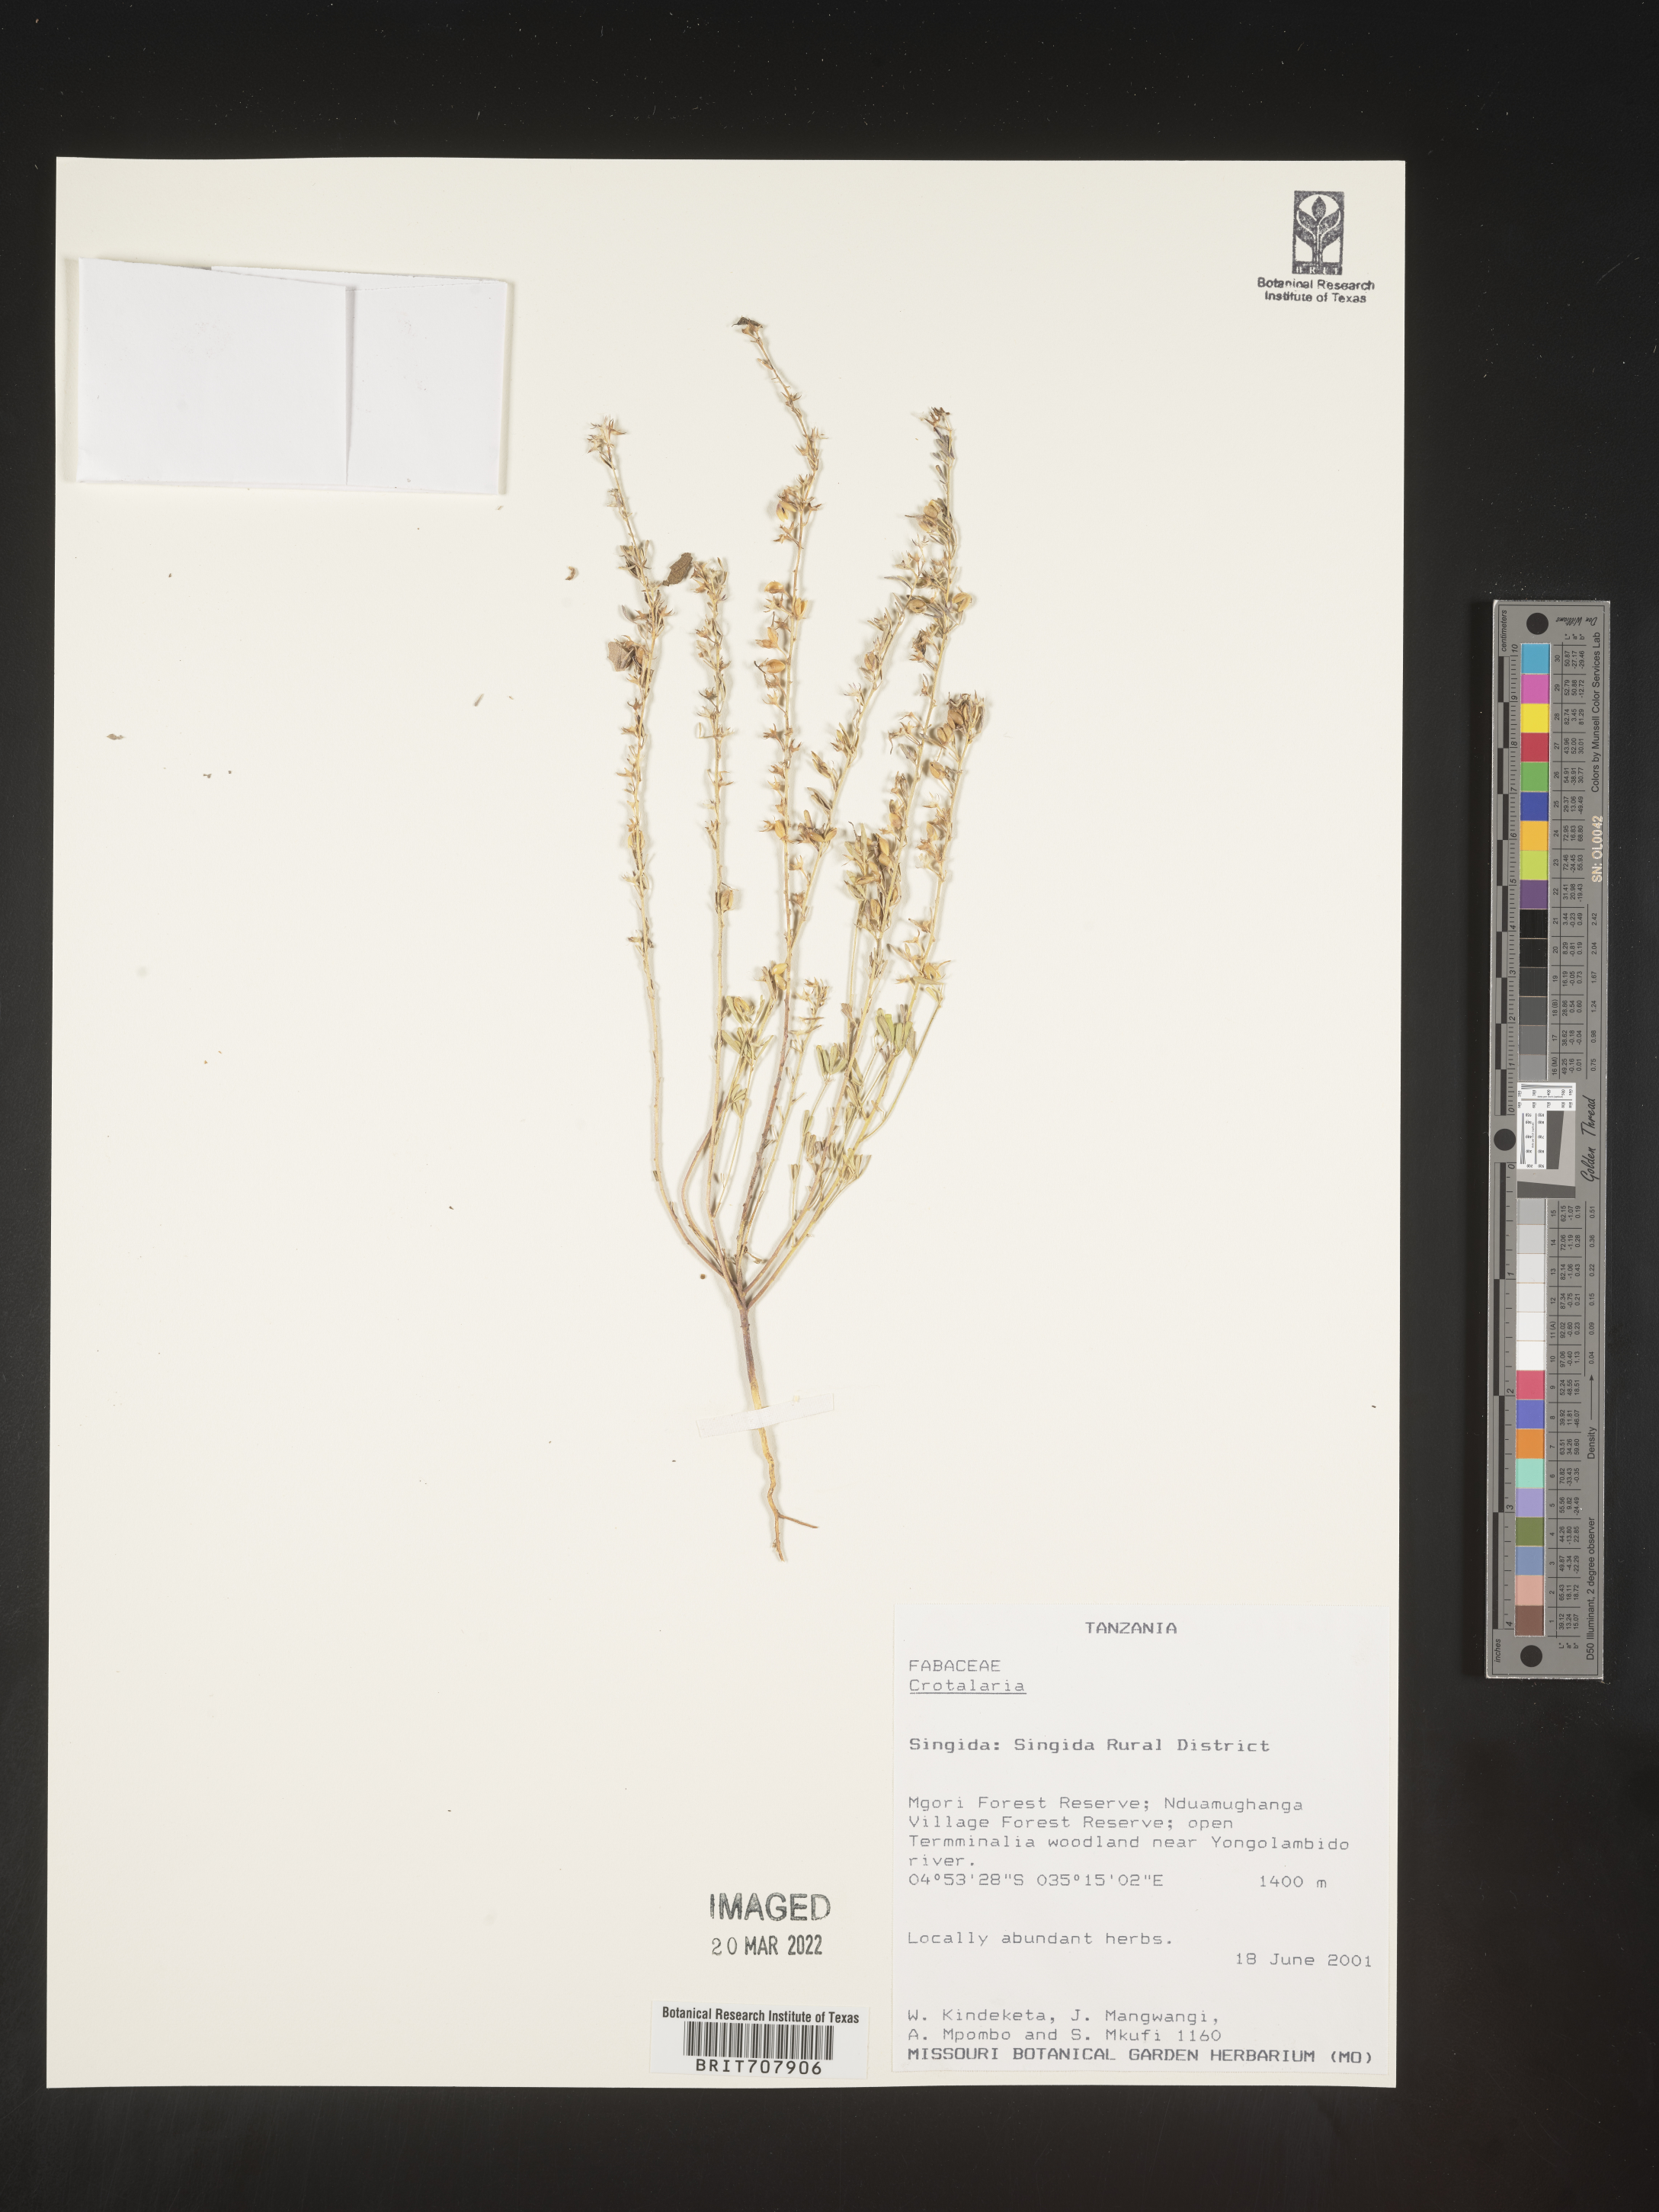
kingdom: Plantae
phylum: Tracheophyta
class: Magnoliopsida
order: Fabales
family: Fabaceae
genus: Crotalaria
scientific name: Crotalaria
